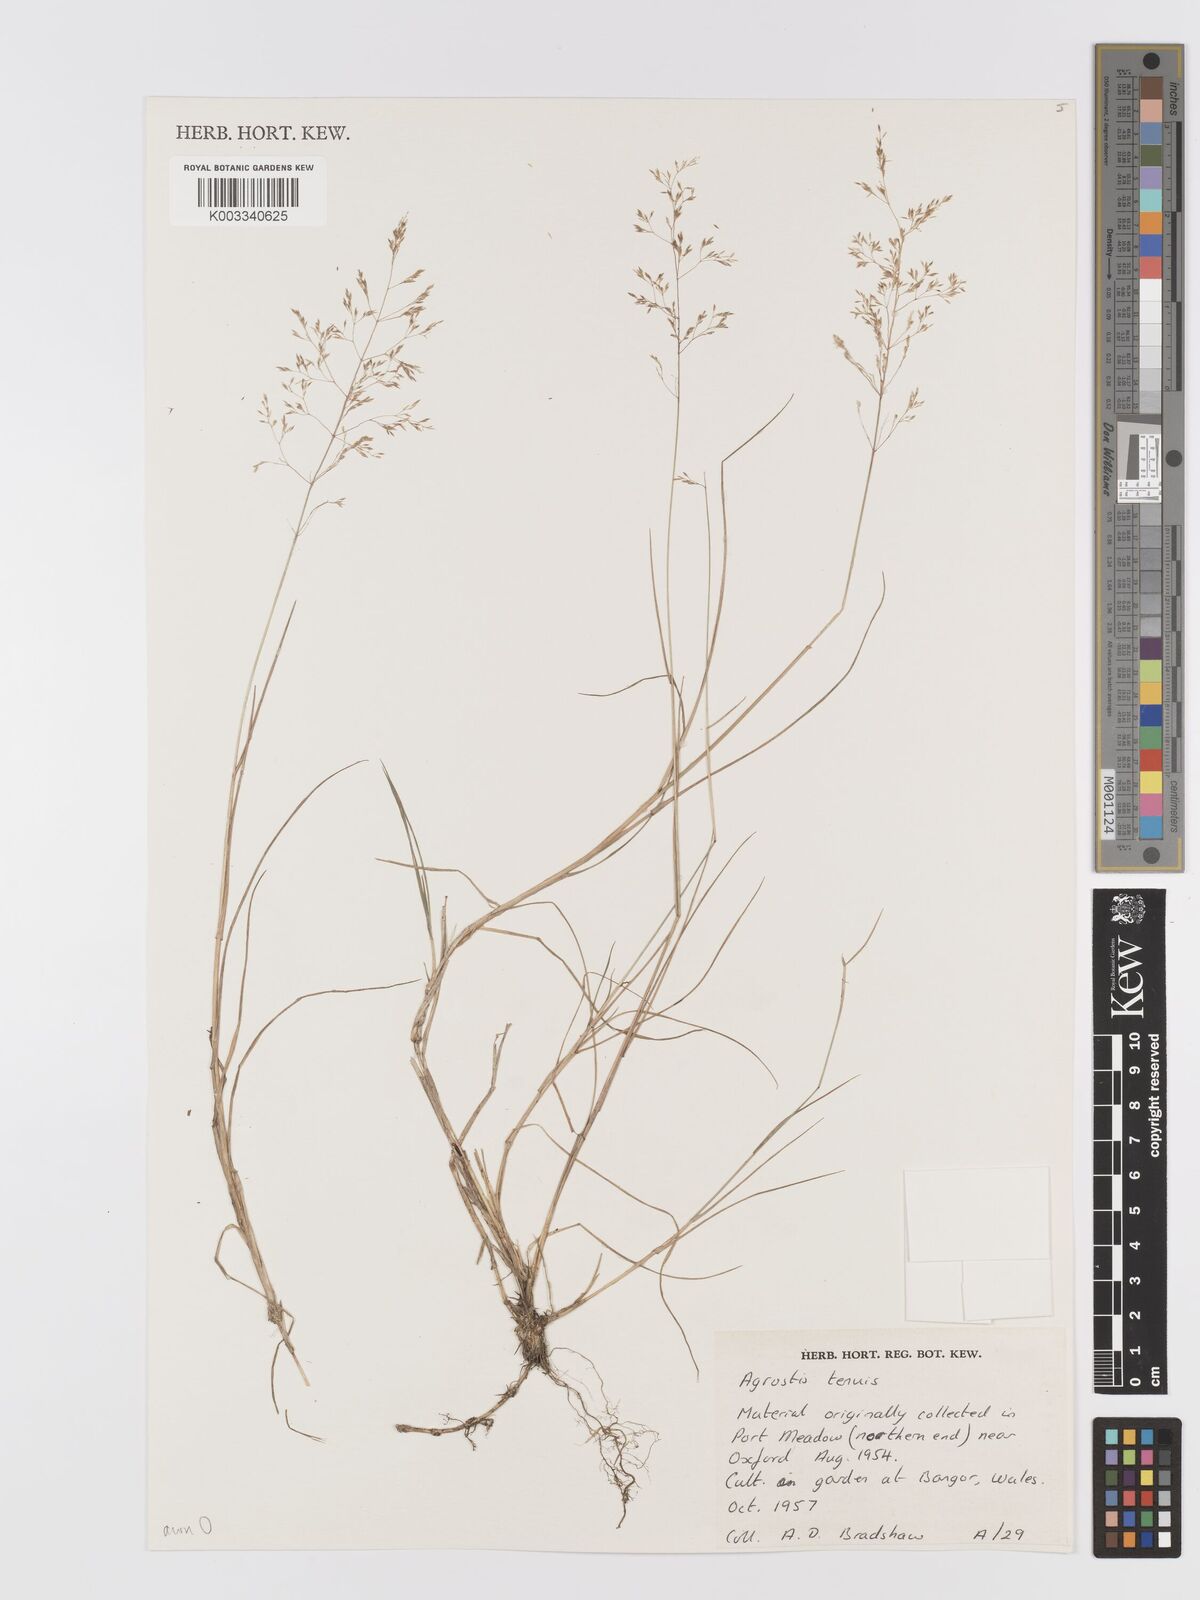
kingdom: Plantae
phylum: Tracheophyta
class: Liliopsida
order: Poales
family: Poaceae
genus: Agrostis
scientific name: Agrostis capillaris
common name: Colonial bentgrass
